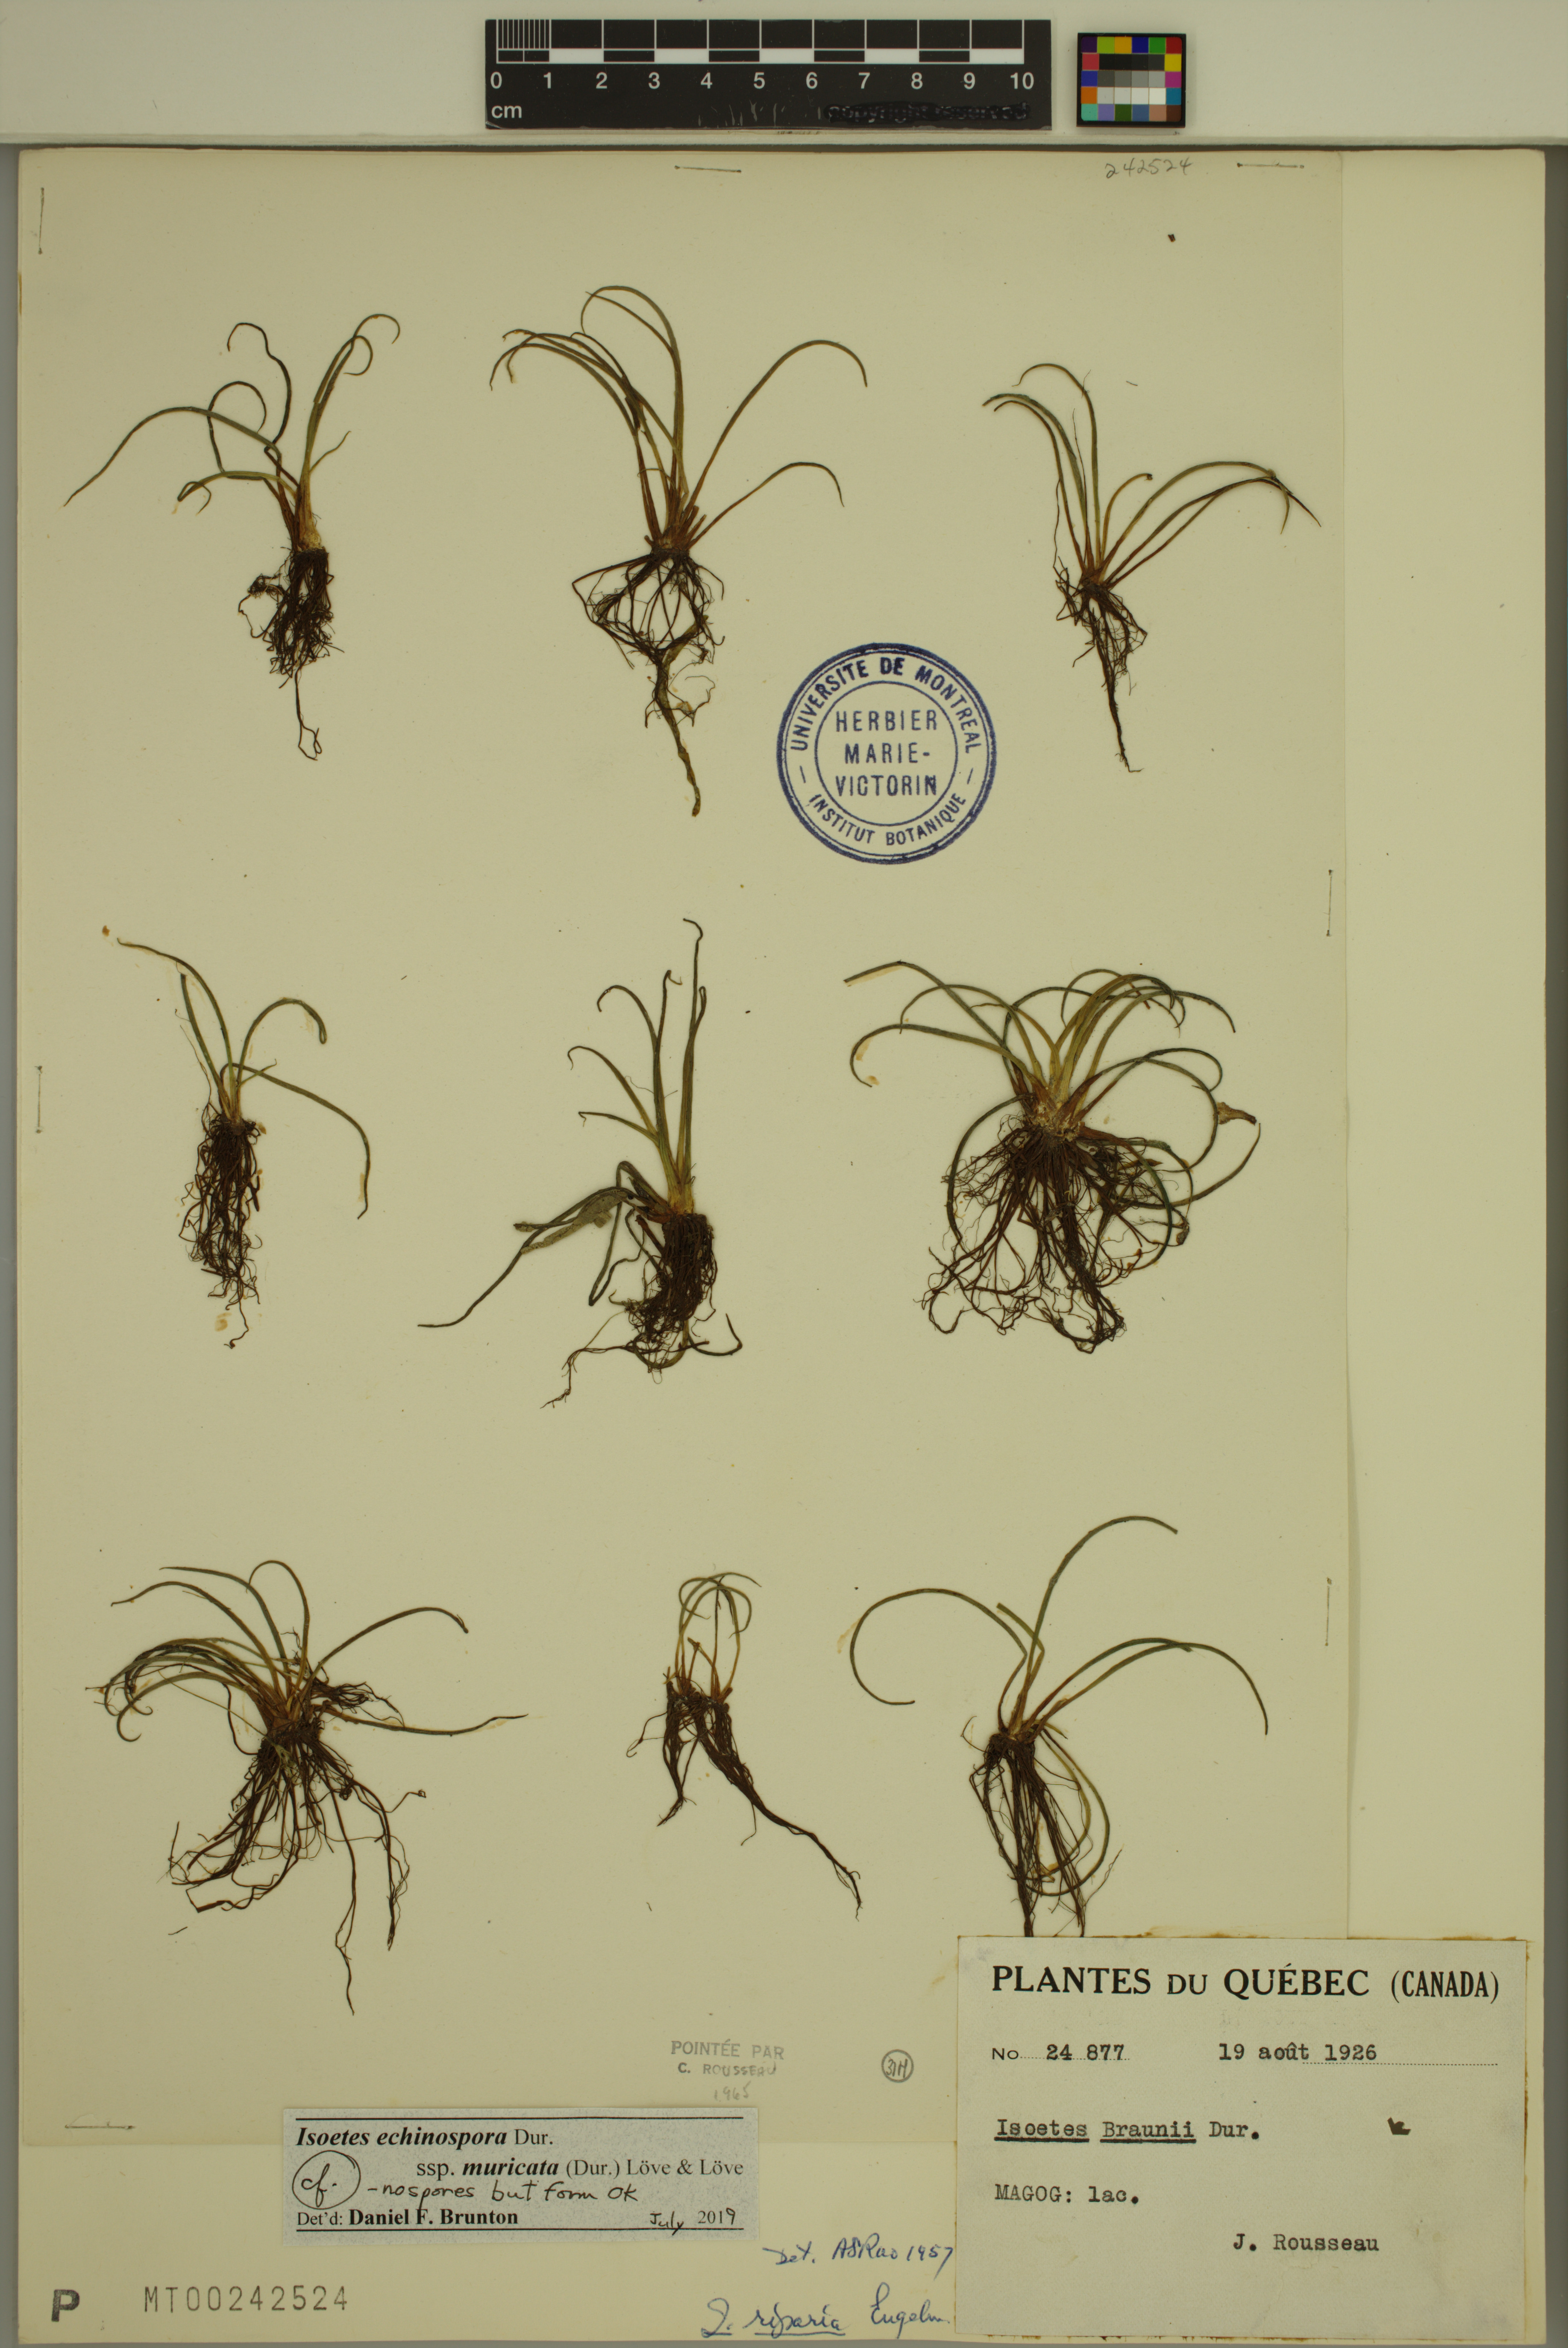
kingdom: Plantae
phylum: Tracheophyta
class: Lycopodiopsida
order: Isoetales
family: Isoetaceae
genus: Isoetes
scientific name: Isoetes echinospora
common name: Spring quillwort
